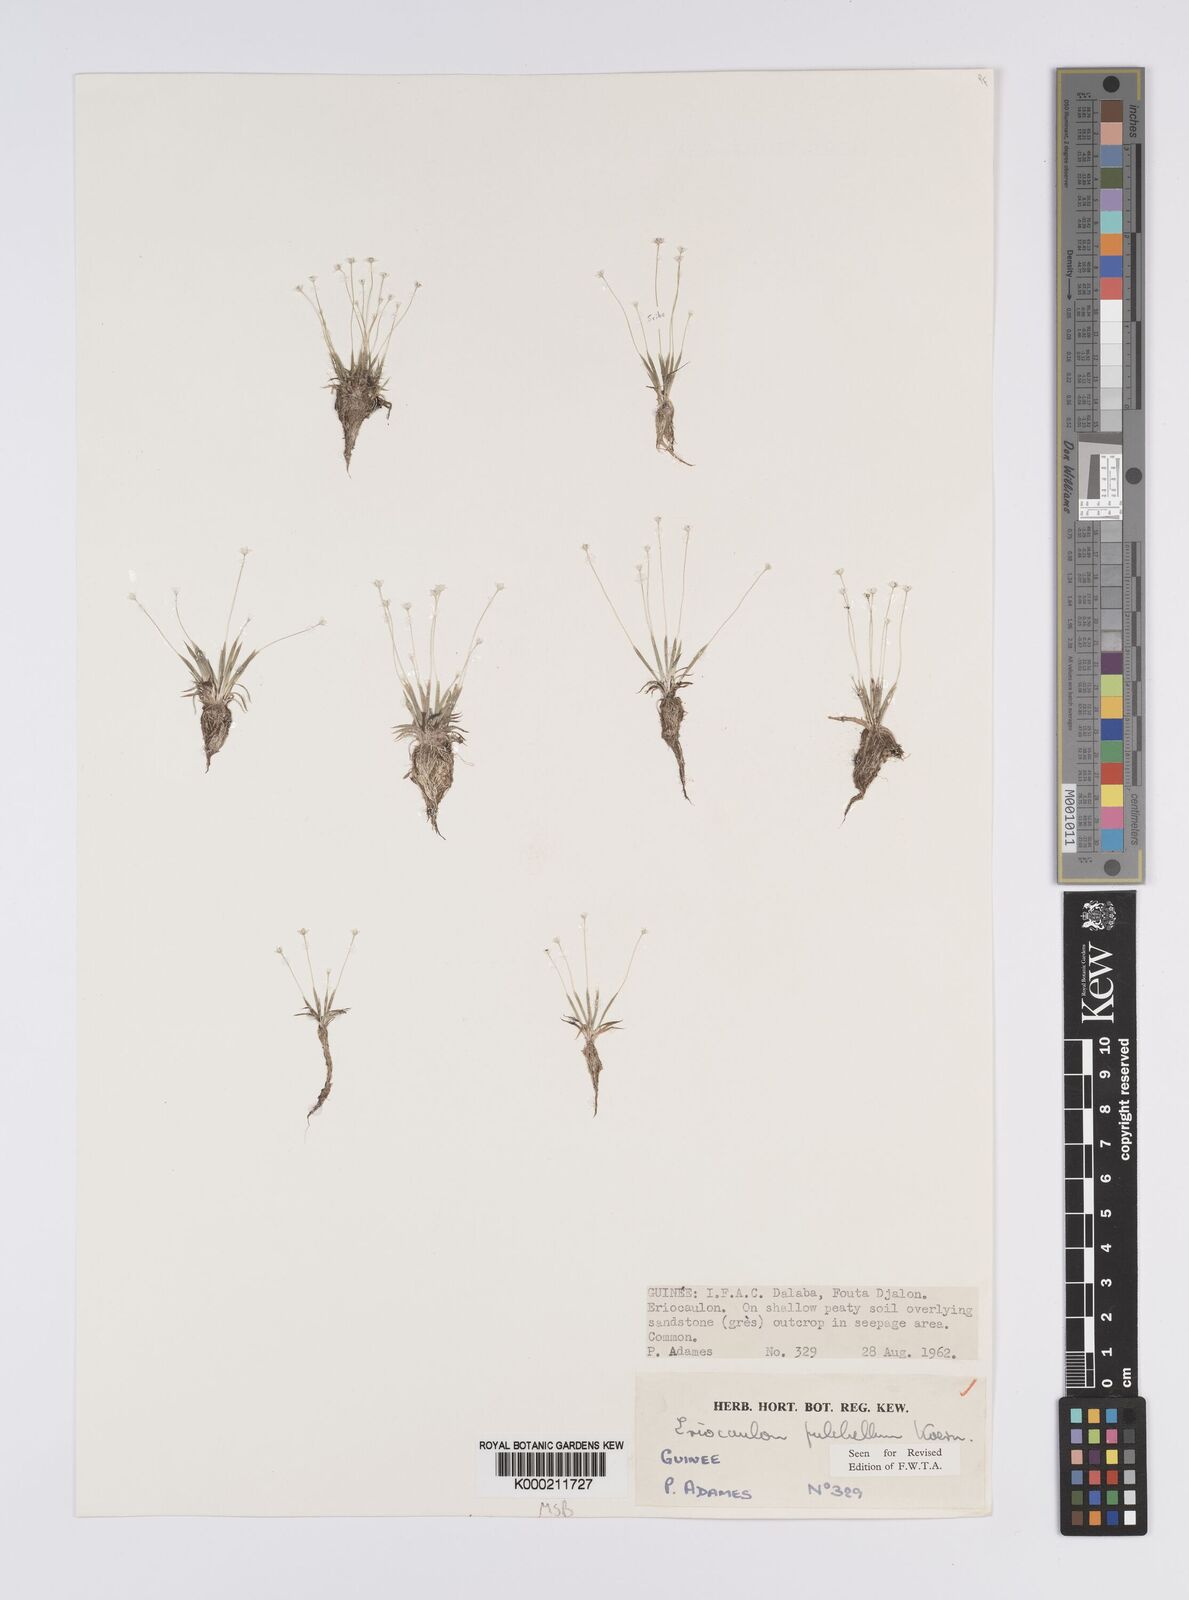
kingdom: Plantae
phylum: Tracheophyta
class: Liliopsida
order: Poales
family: Eriocaulaceae
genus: Eriocaulon
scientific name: Eriocaulon
